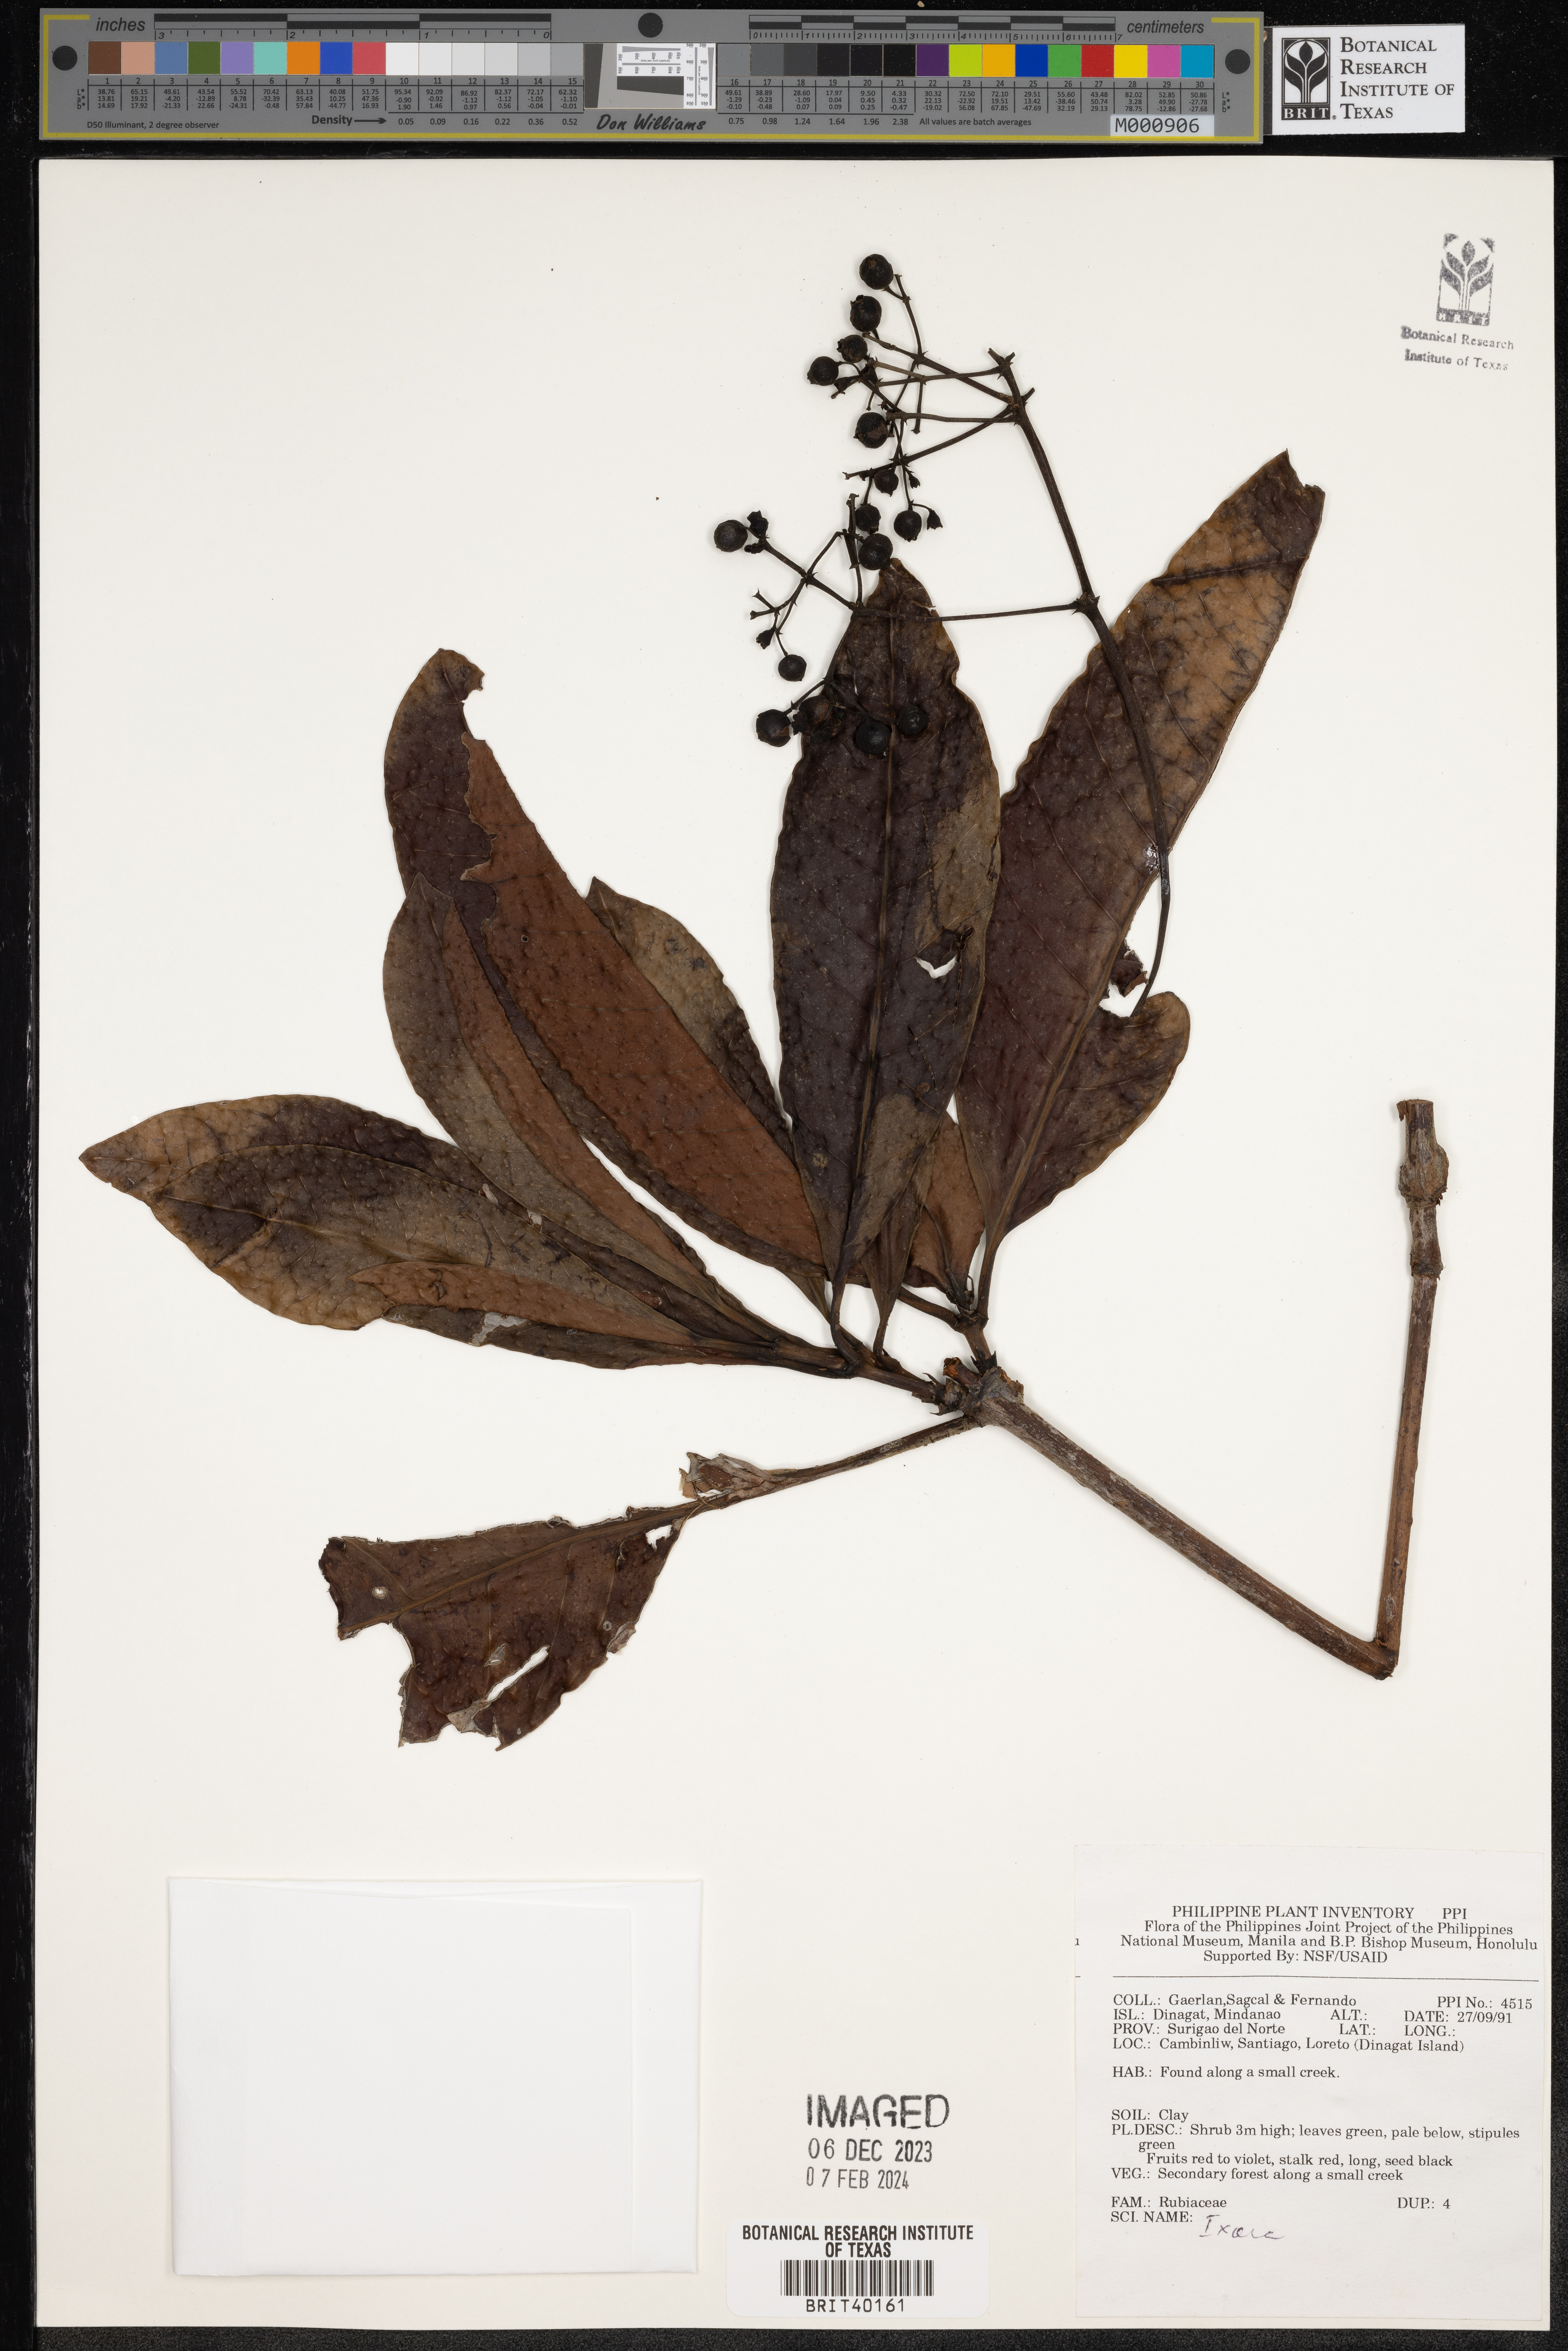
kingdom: Plantae
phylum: Tracheophyta
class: Magnoliopsida
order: Gentianales
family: Rubiaceae
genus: Ixora
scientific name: Ixora
